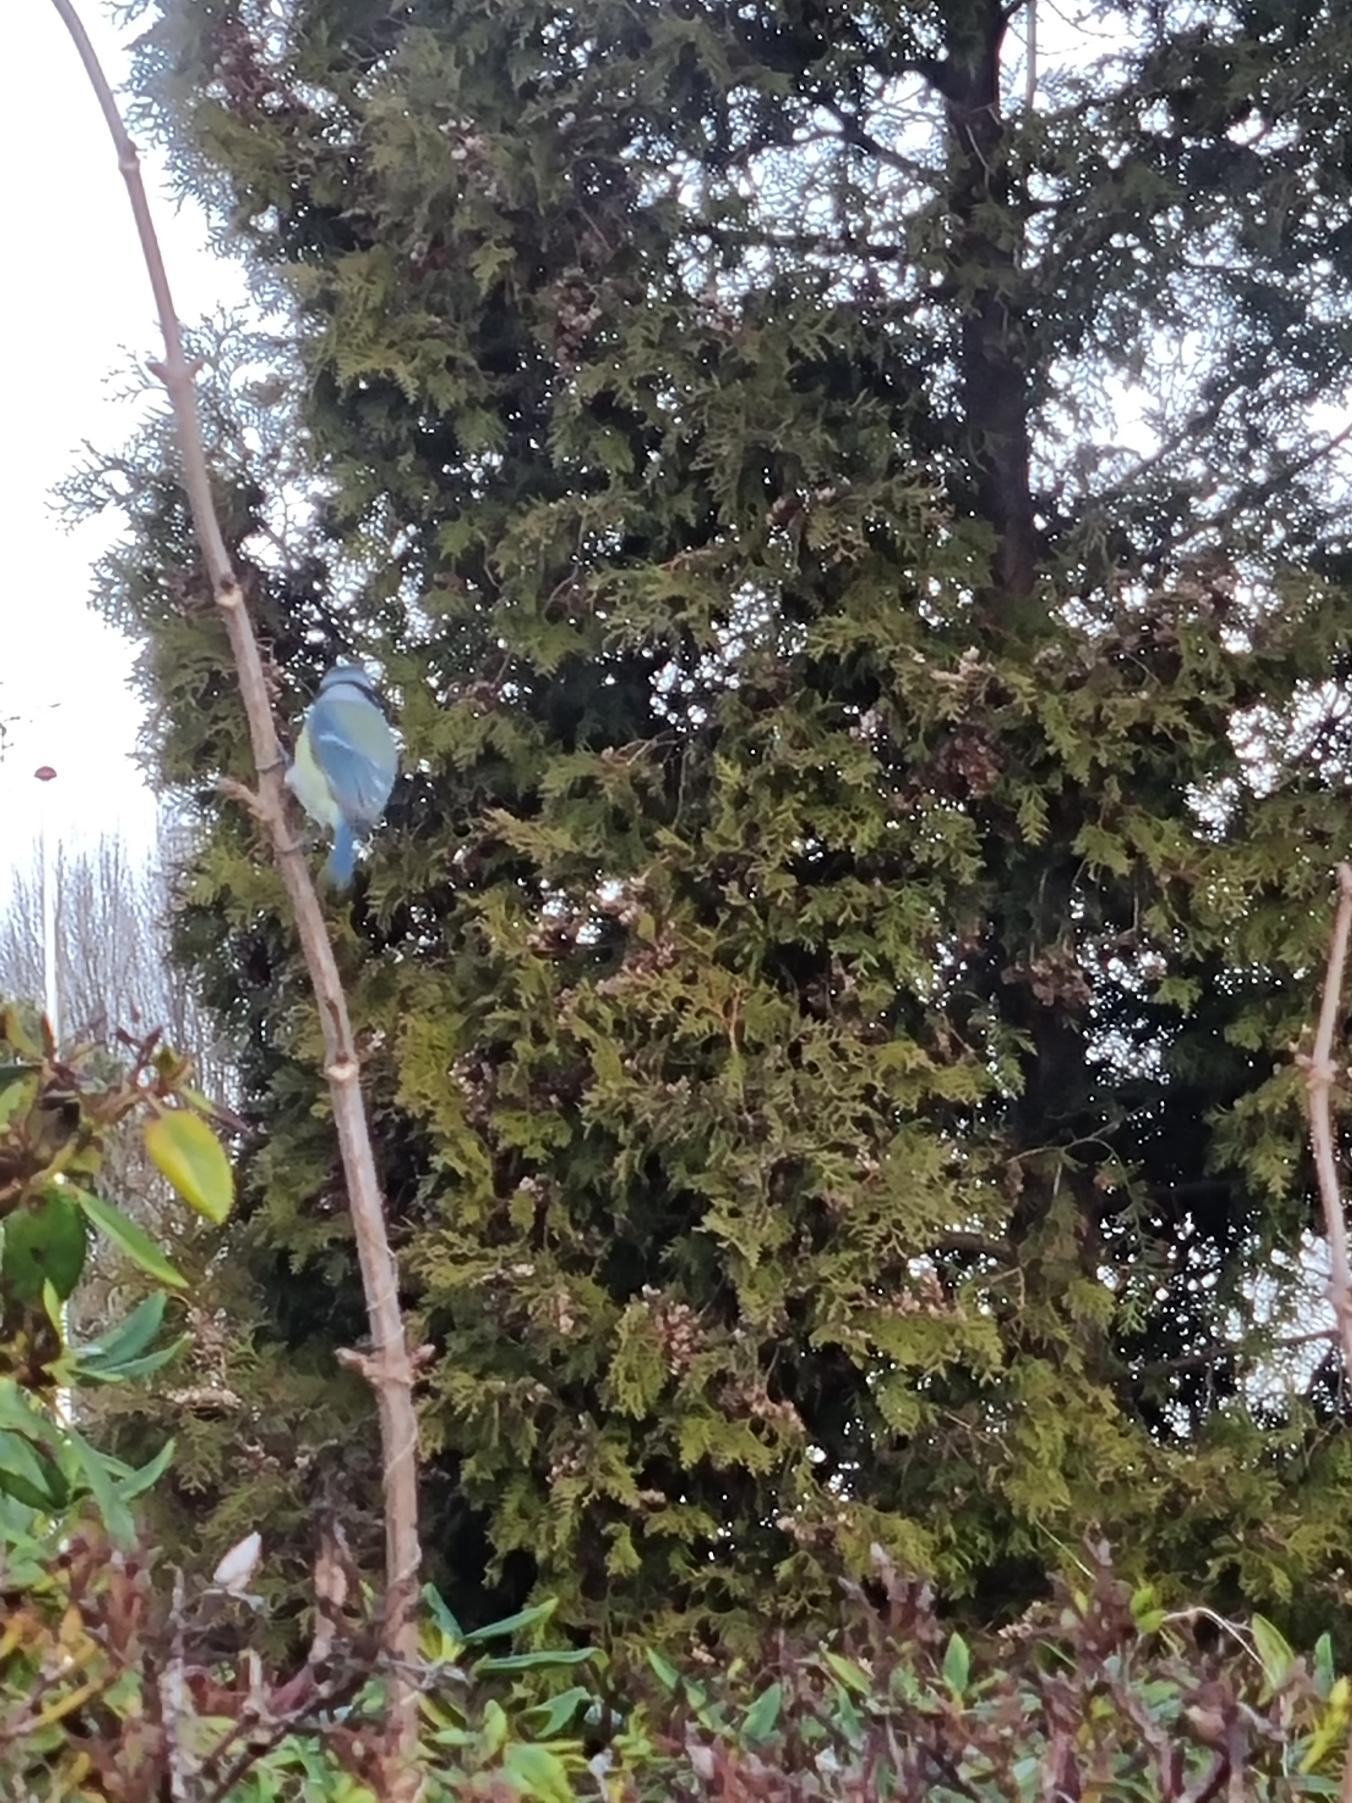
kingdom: Animalia
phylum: Chordata
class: Aves
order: Passeriformes
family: Paridae
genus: Cyanistes
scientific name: Cyanistes caeruleus
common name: Blåmejse
